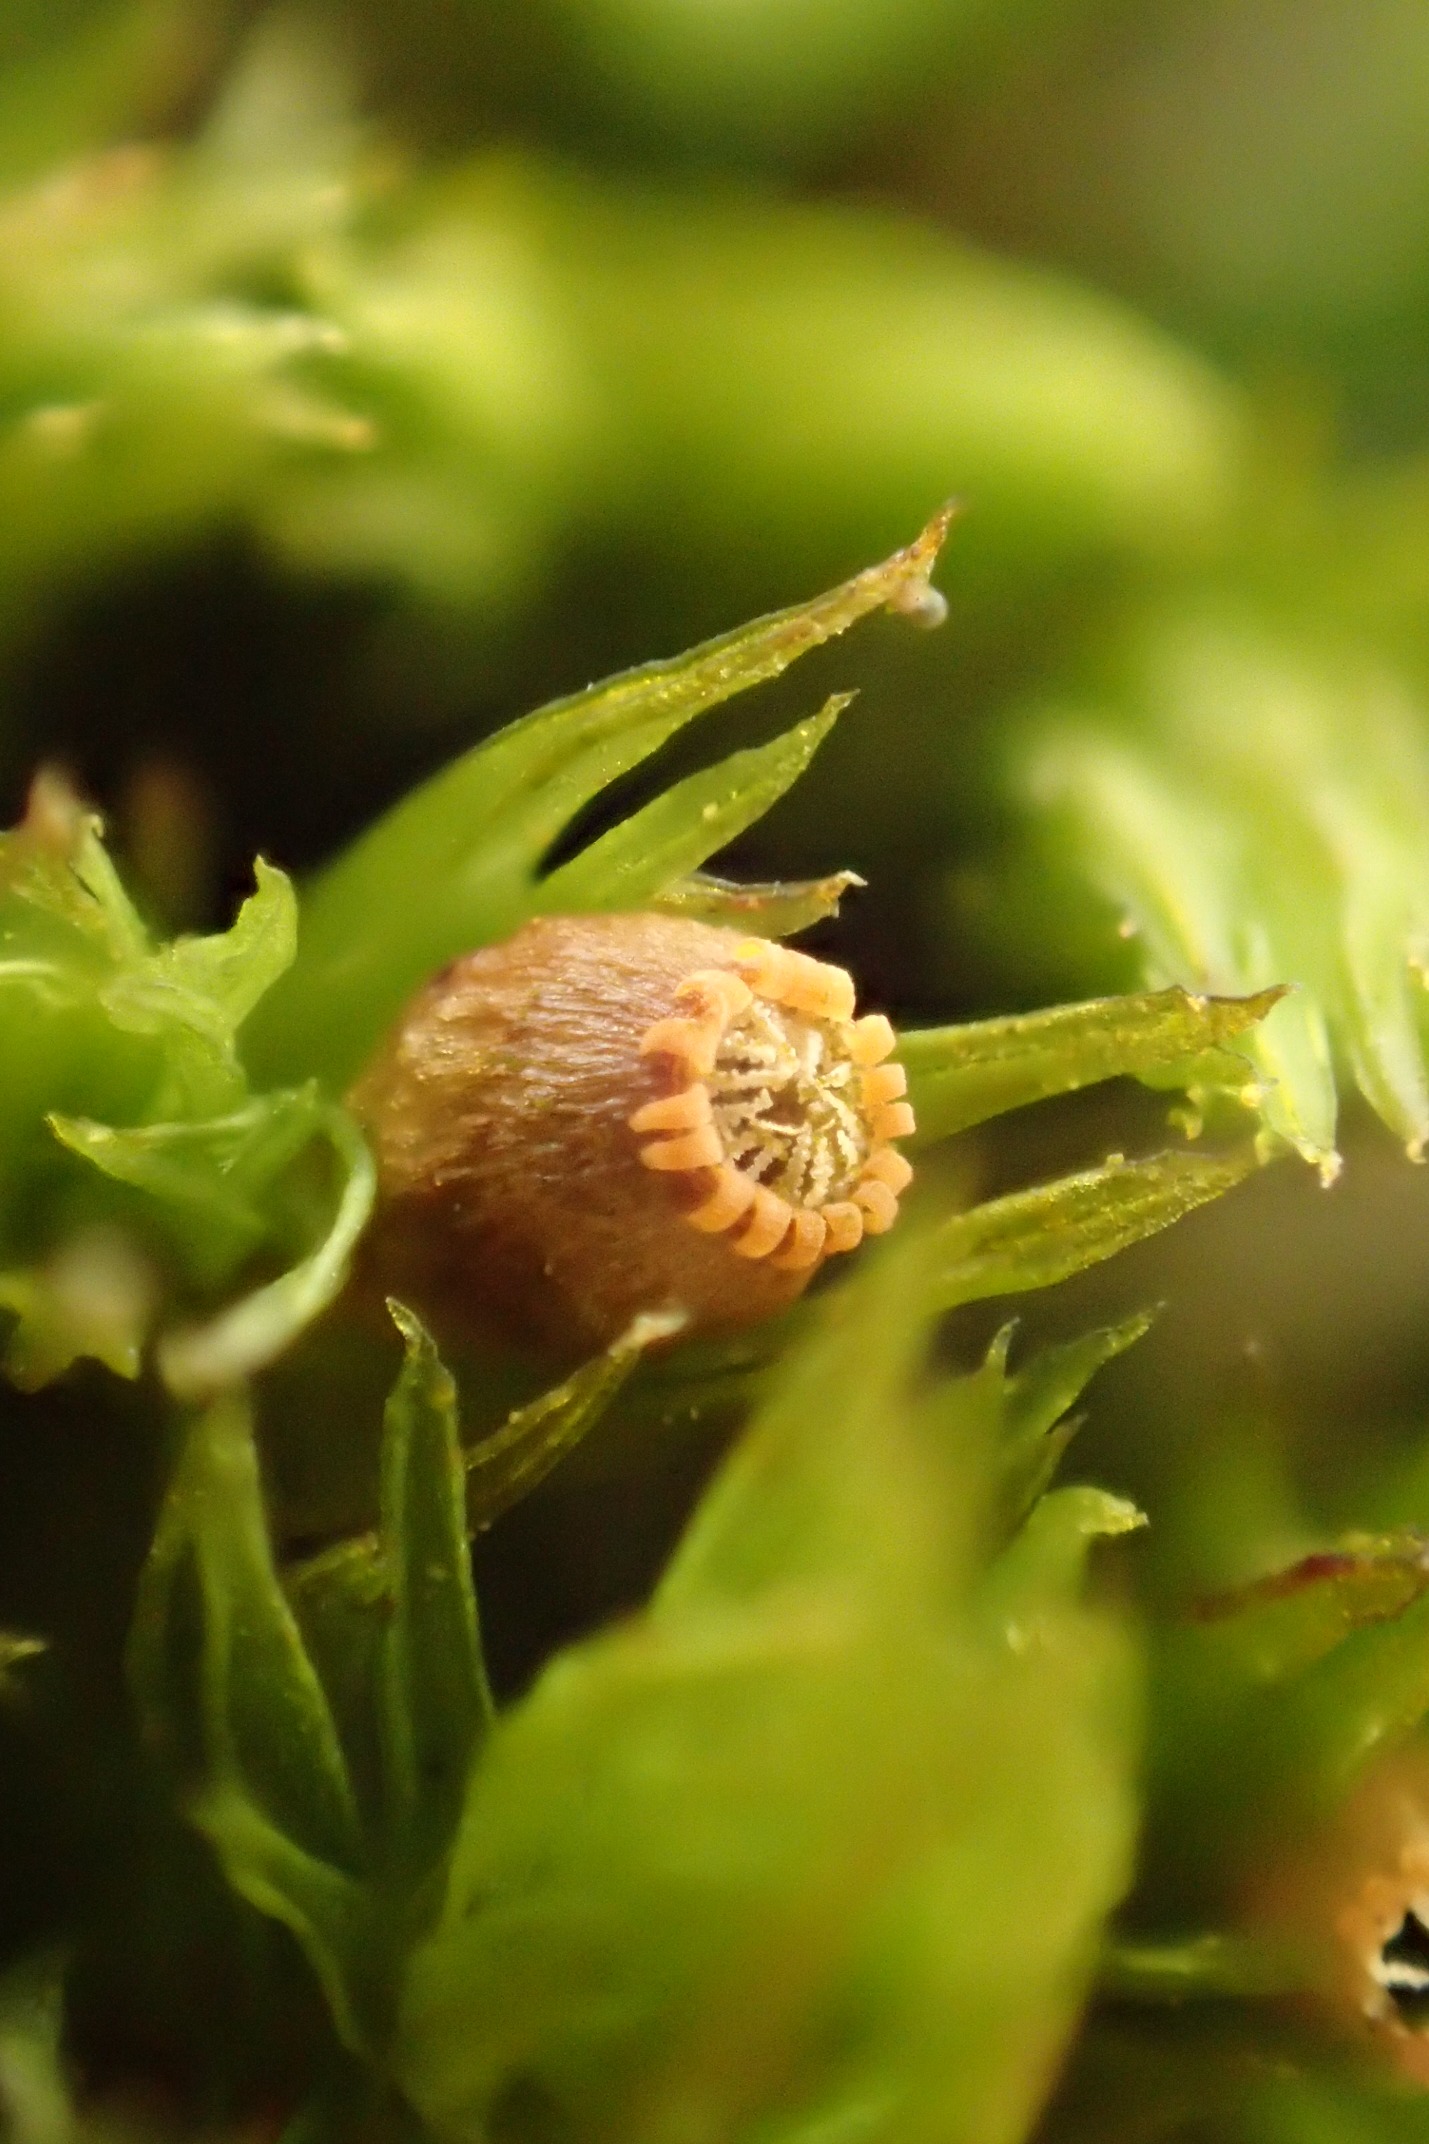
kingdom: Plantae
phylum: Bryophyta
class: Bryopsida
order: Orthotrichales
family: Orthotrichaceae
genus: Lewinskya
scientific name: Lewinskya striata
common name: Glatkapslet furehætte
